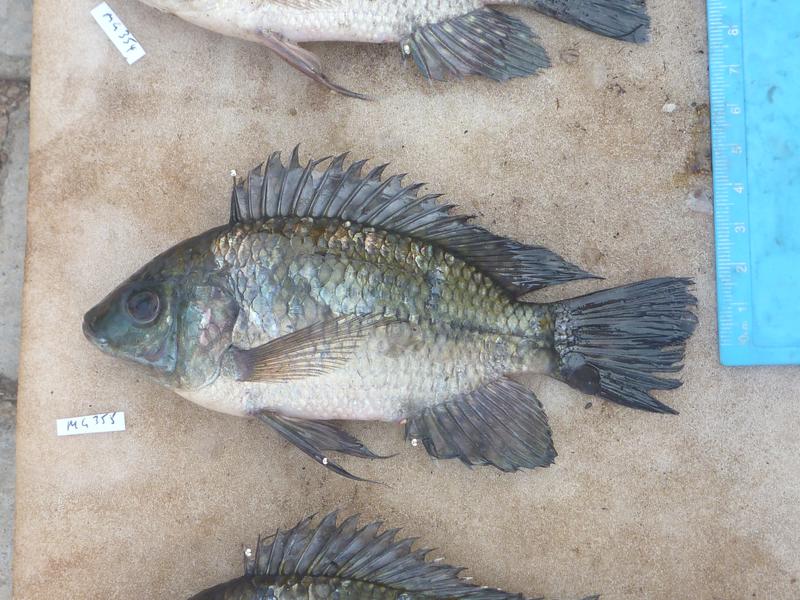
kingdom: Animalia
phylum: Chordata
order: Perciformes
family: Cichlidae
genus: Oreochromis
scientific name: Oreochromis leucostictus
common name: Blue spotted tilapia
